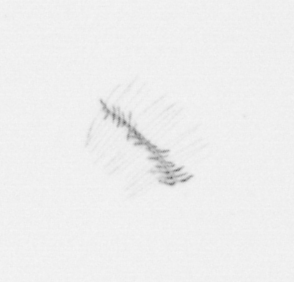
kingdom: Chromista
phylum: Ochrophyta
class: Bacillariophyceae
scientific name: Bacillariophyceae
